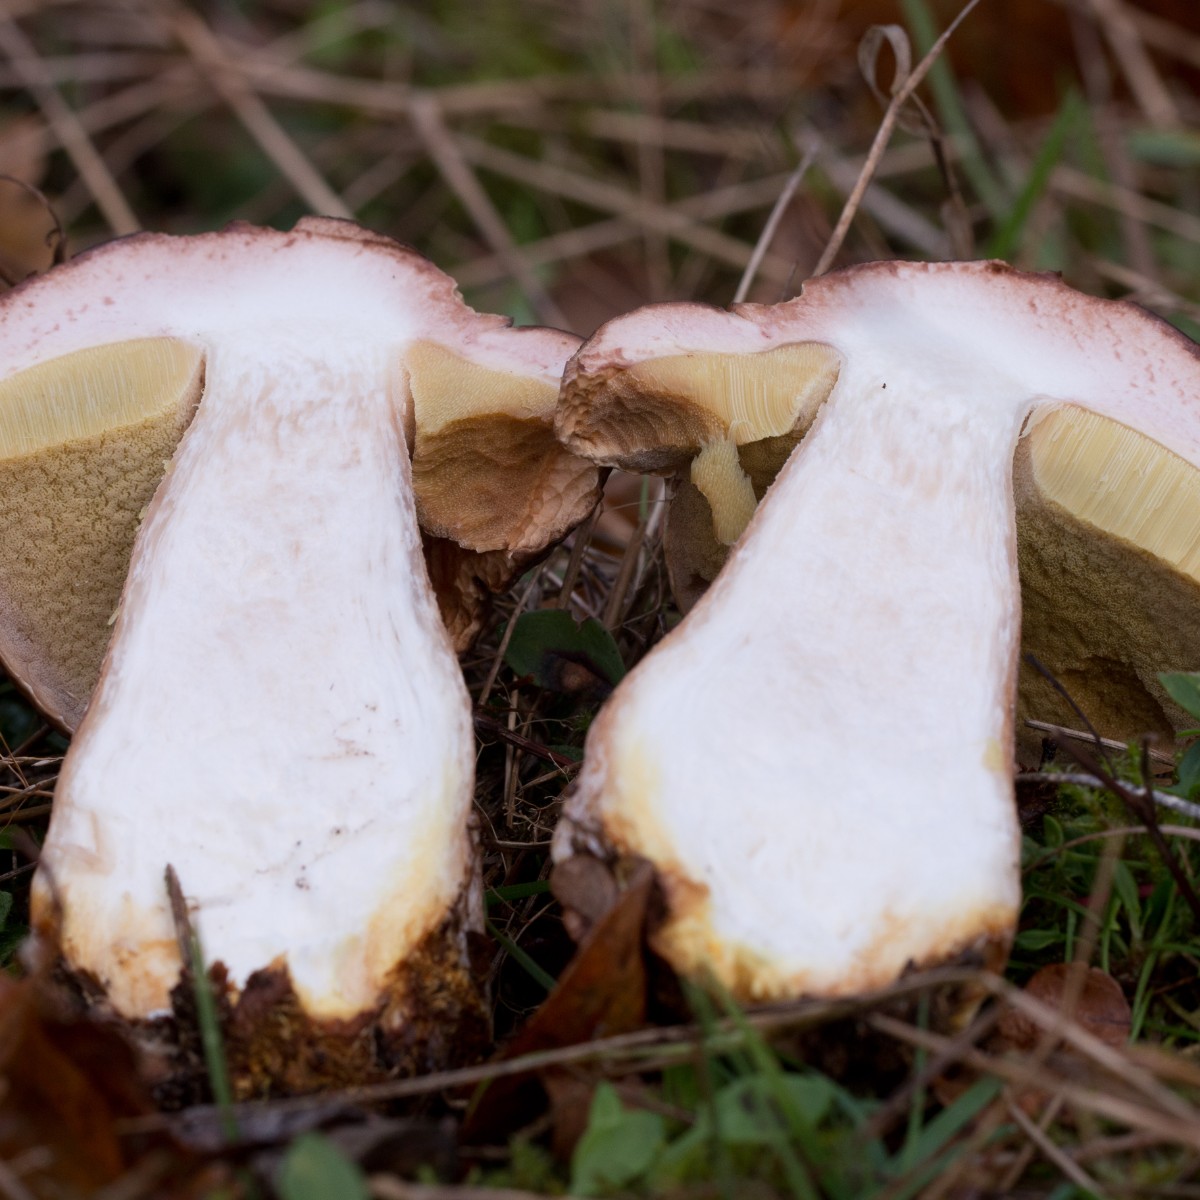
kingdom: Fungi
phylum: Basidiomycota
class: Agaricomycetes
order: Boletales
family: Boletaceae
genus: Boletus
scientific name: Boletus edulis
